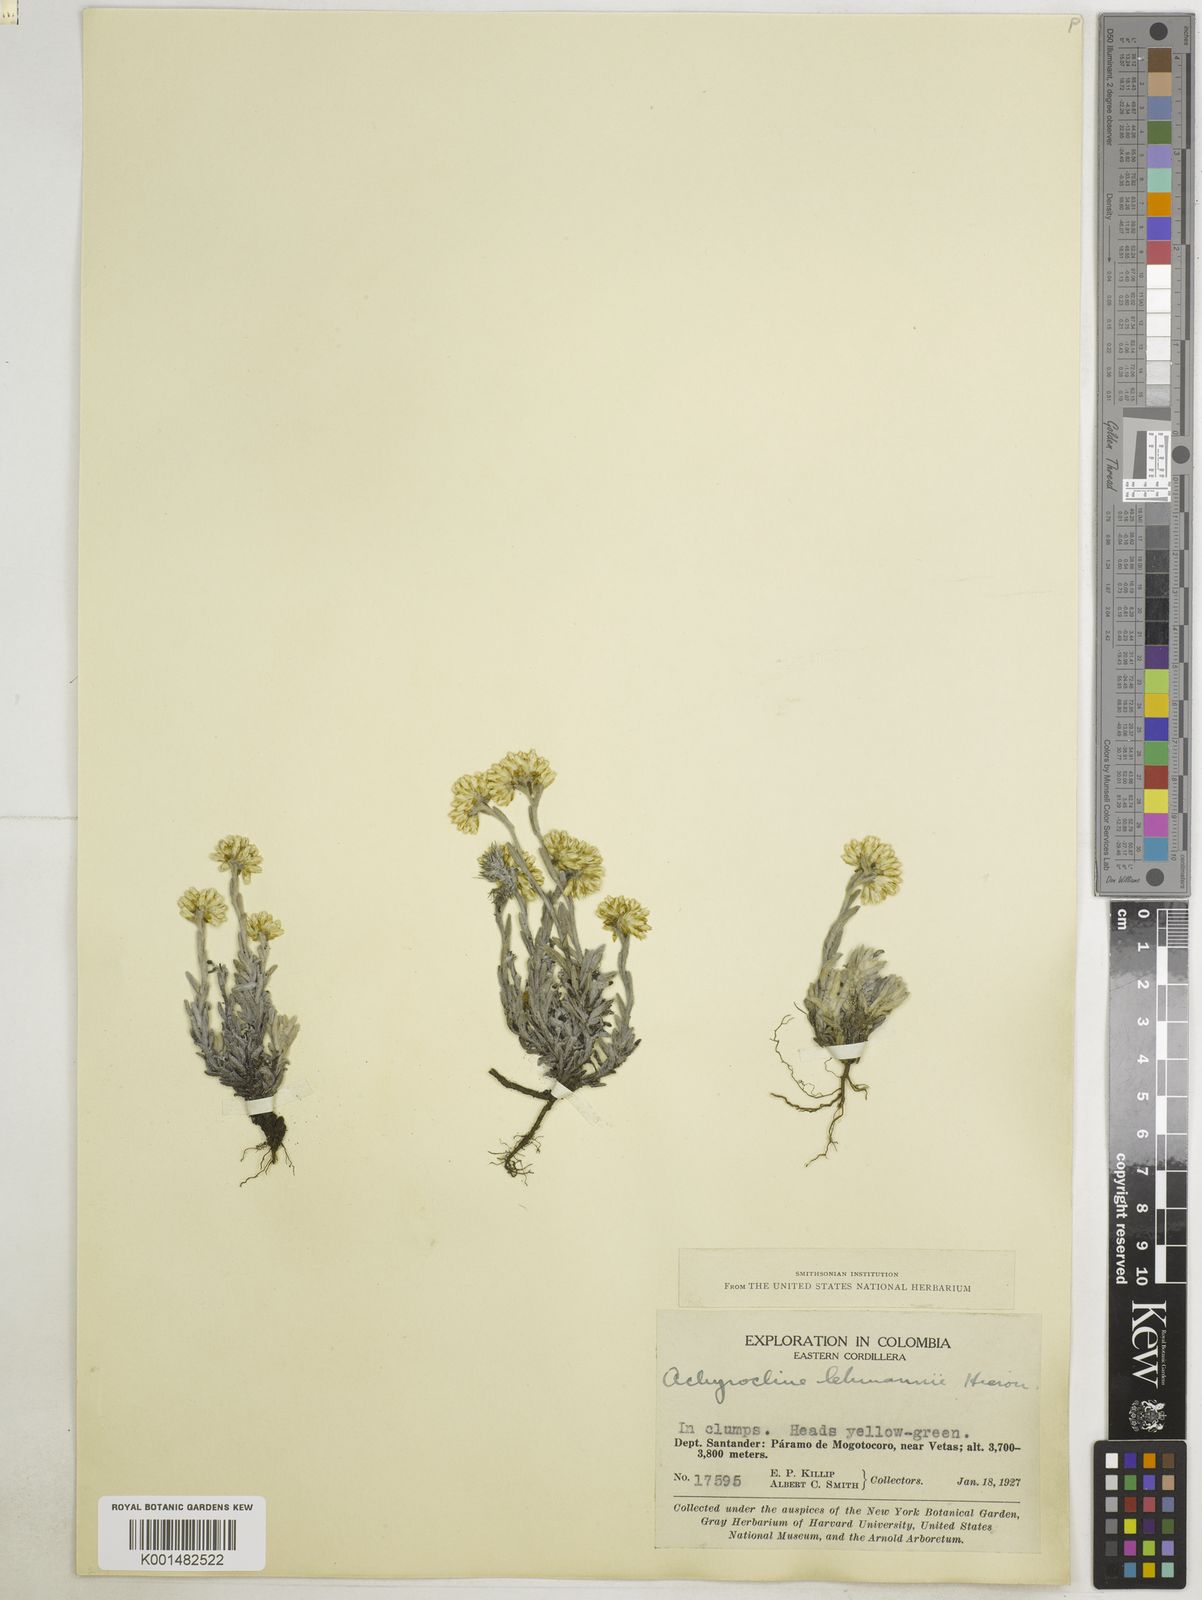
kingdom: Plantae
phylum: Tracheophyta
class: Magnoliopsida
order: Asterales
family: Asteraceae
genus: Achyrocline
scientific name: Achyrocline lehmannii
